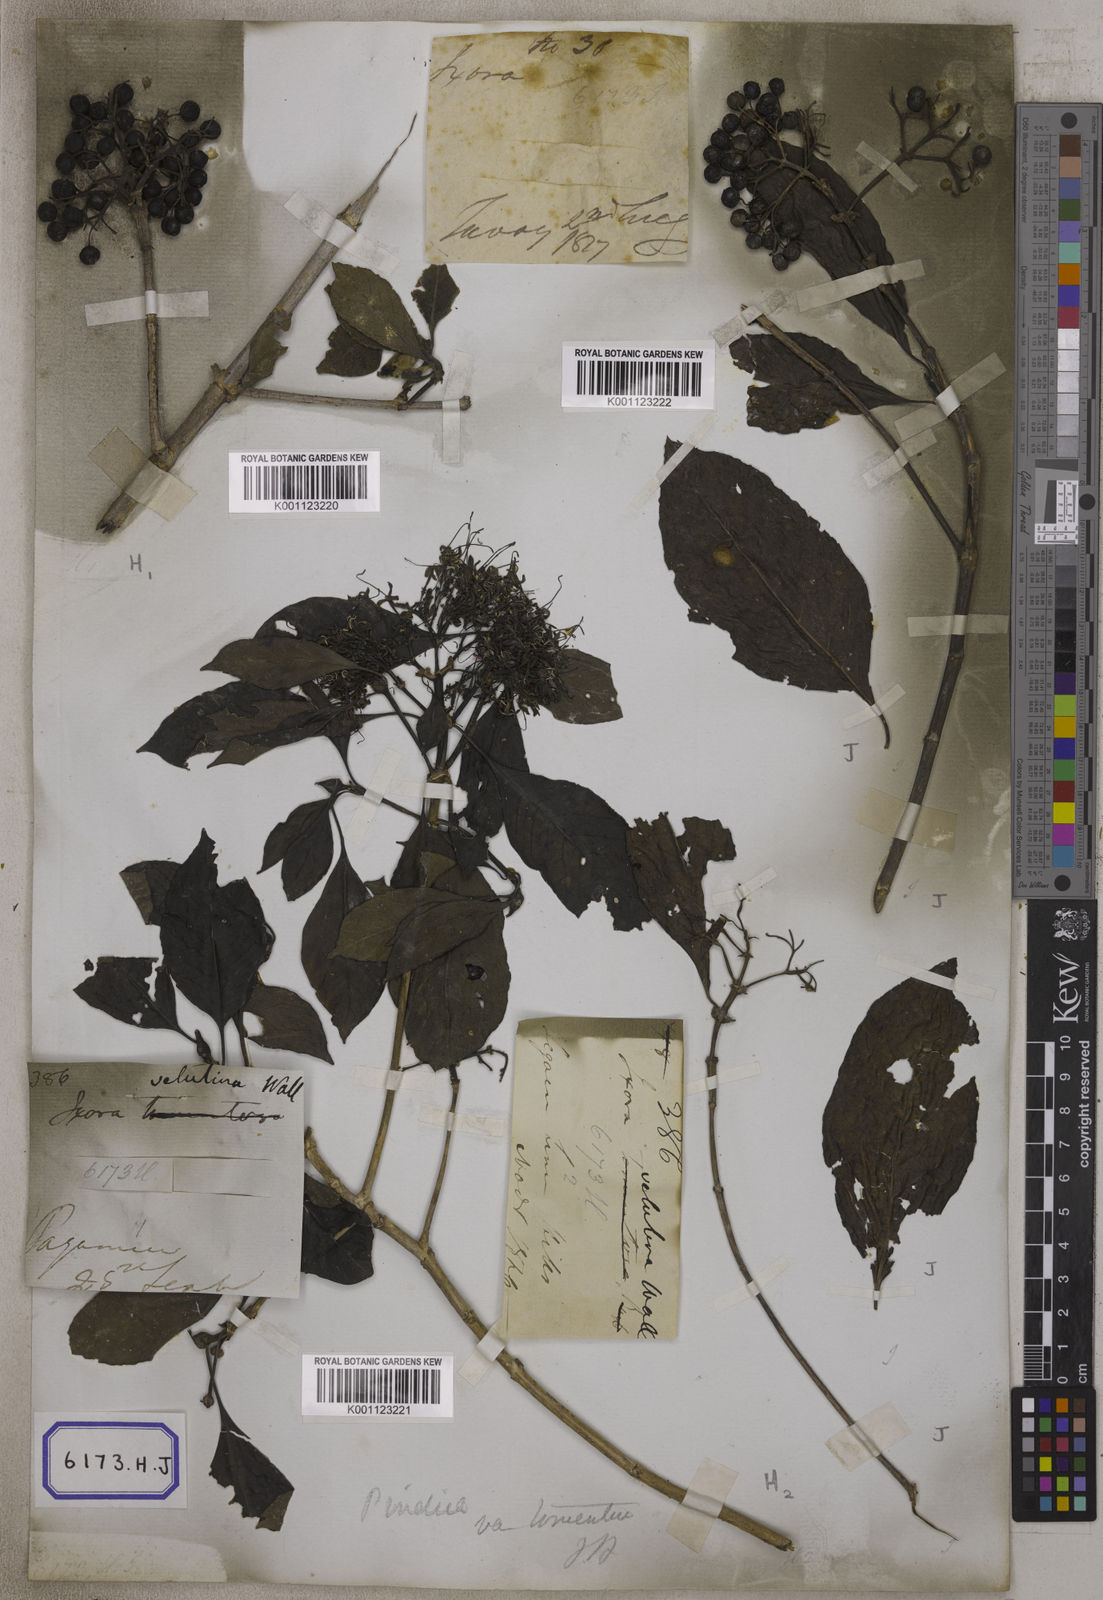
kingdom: Plantae
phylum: Tracheophyta
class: Magnoliopsida
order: Gentianales
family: Rubiaceae
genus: Pavetta
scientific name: Pavetta tomentosa
